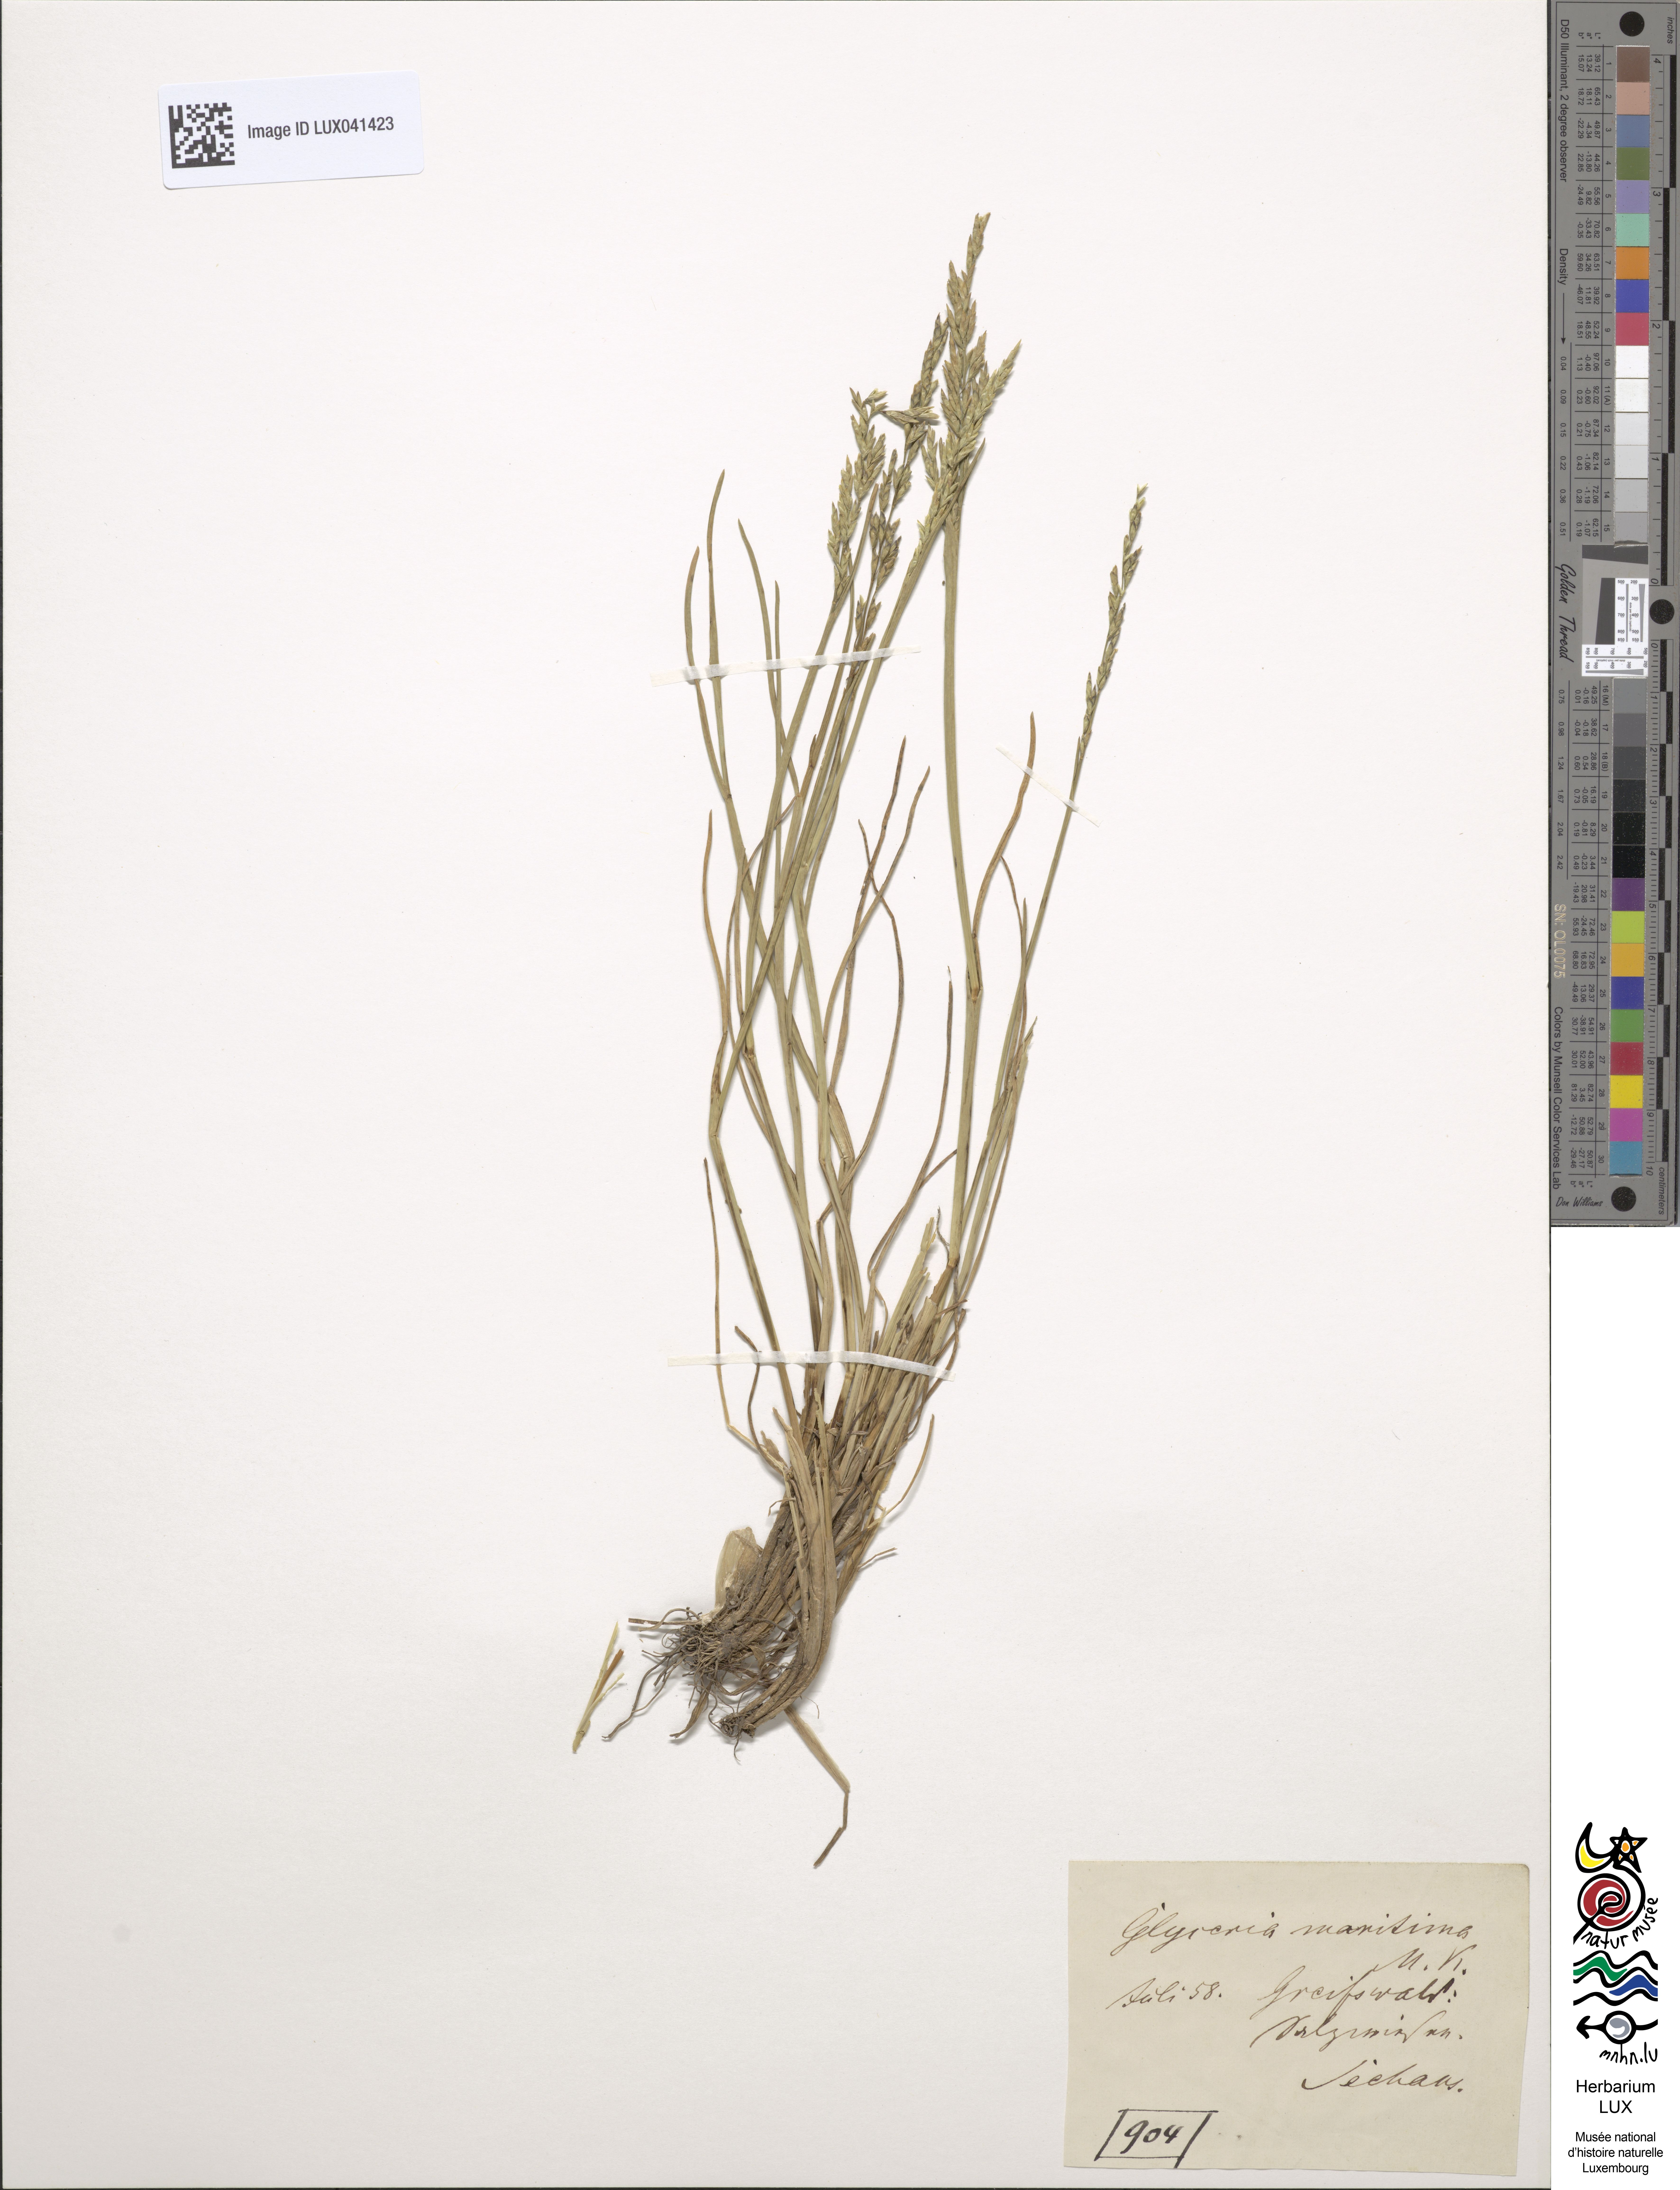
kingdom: Plantae
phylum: Tracheophyta
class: Liliopsida
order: Poales
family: Poaceae
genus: Puccinellia
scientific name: Puccinellia maritima
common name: Common saltmarsh grass
